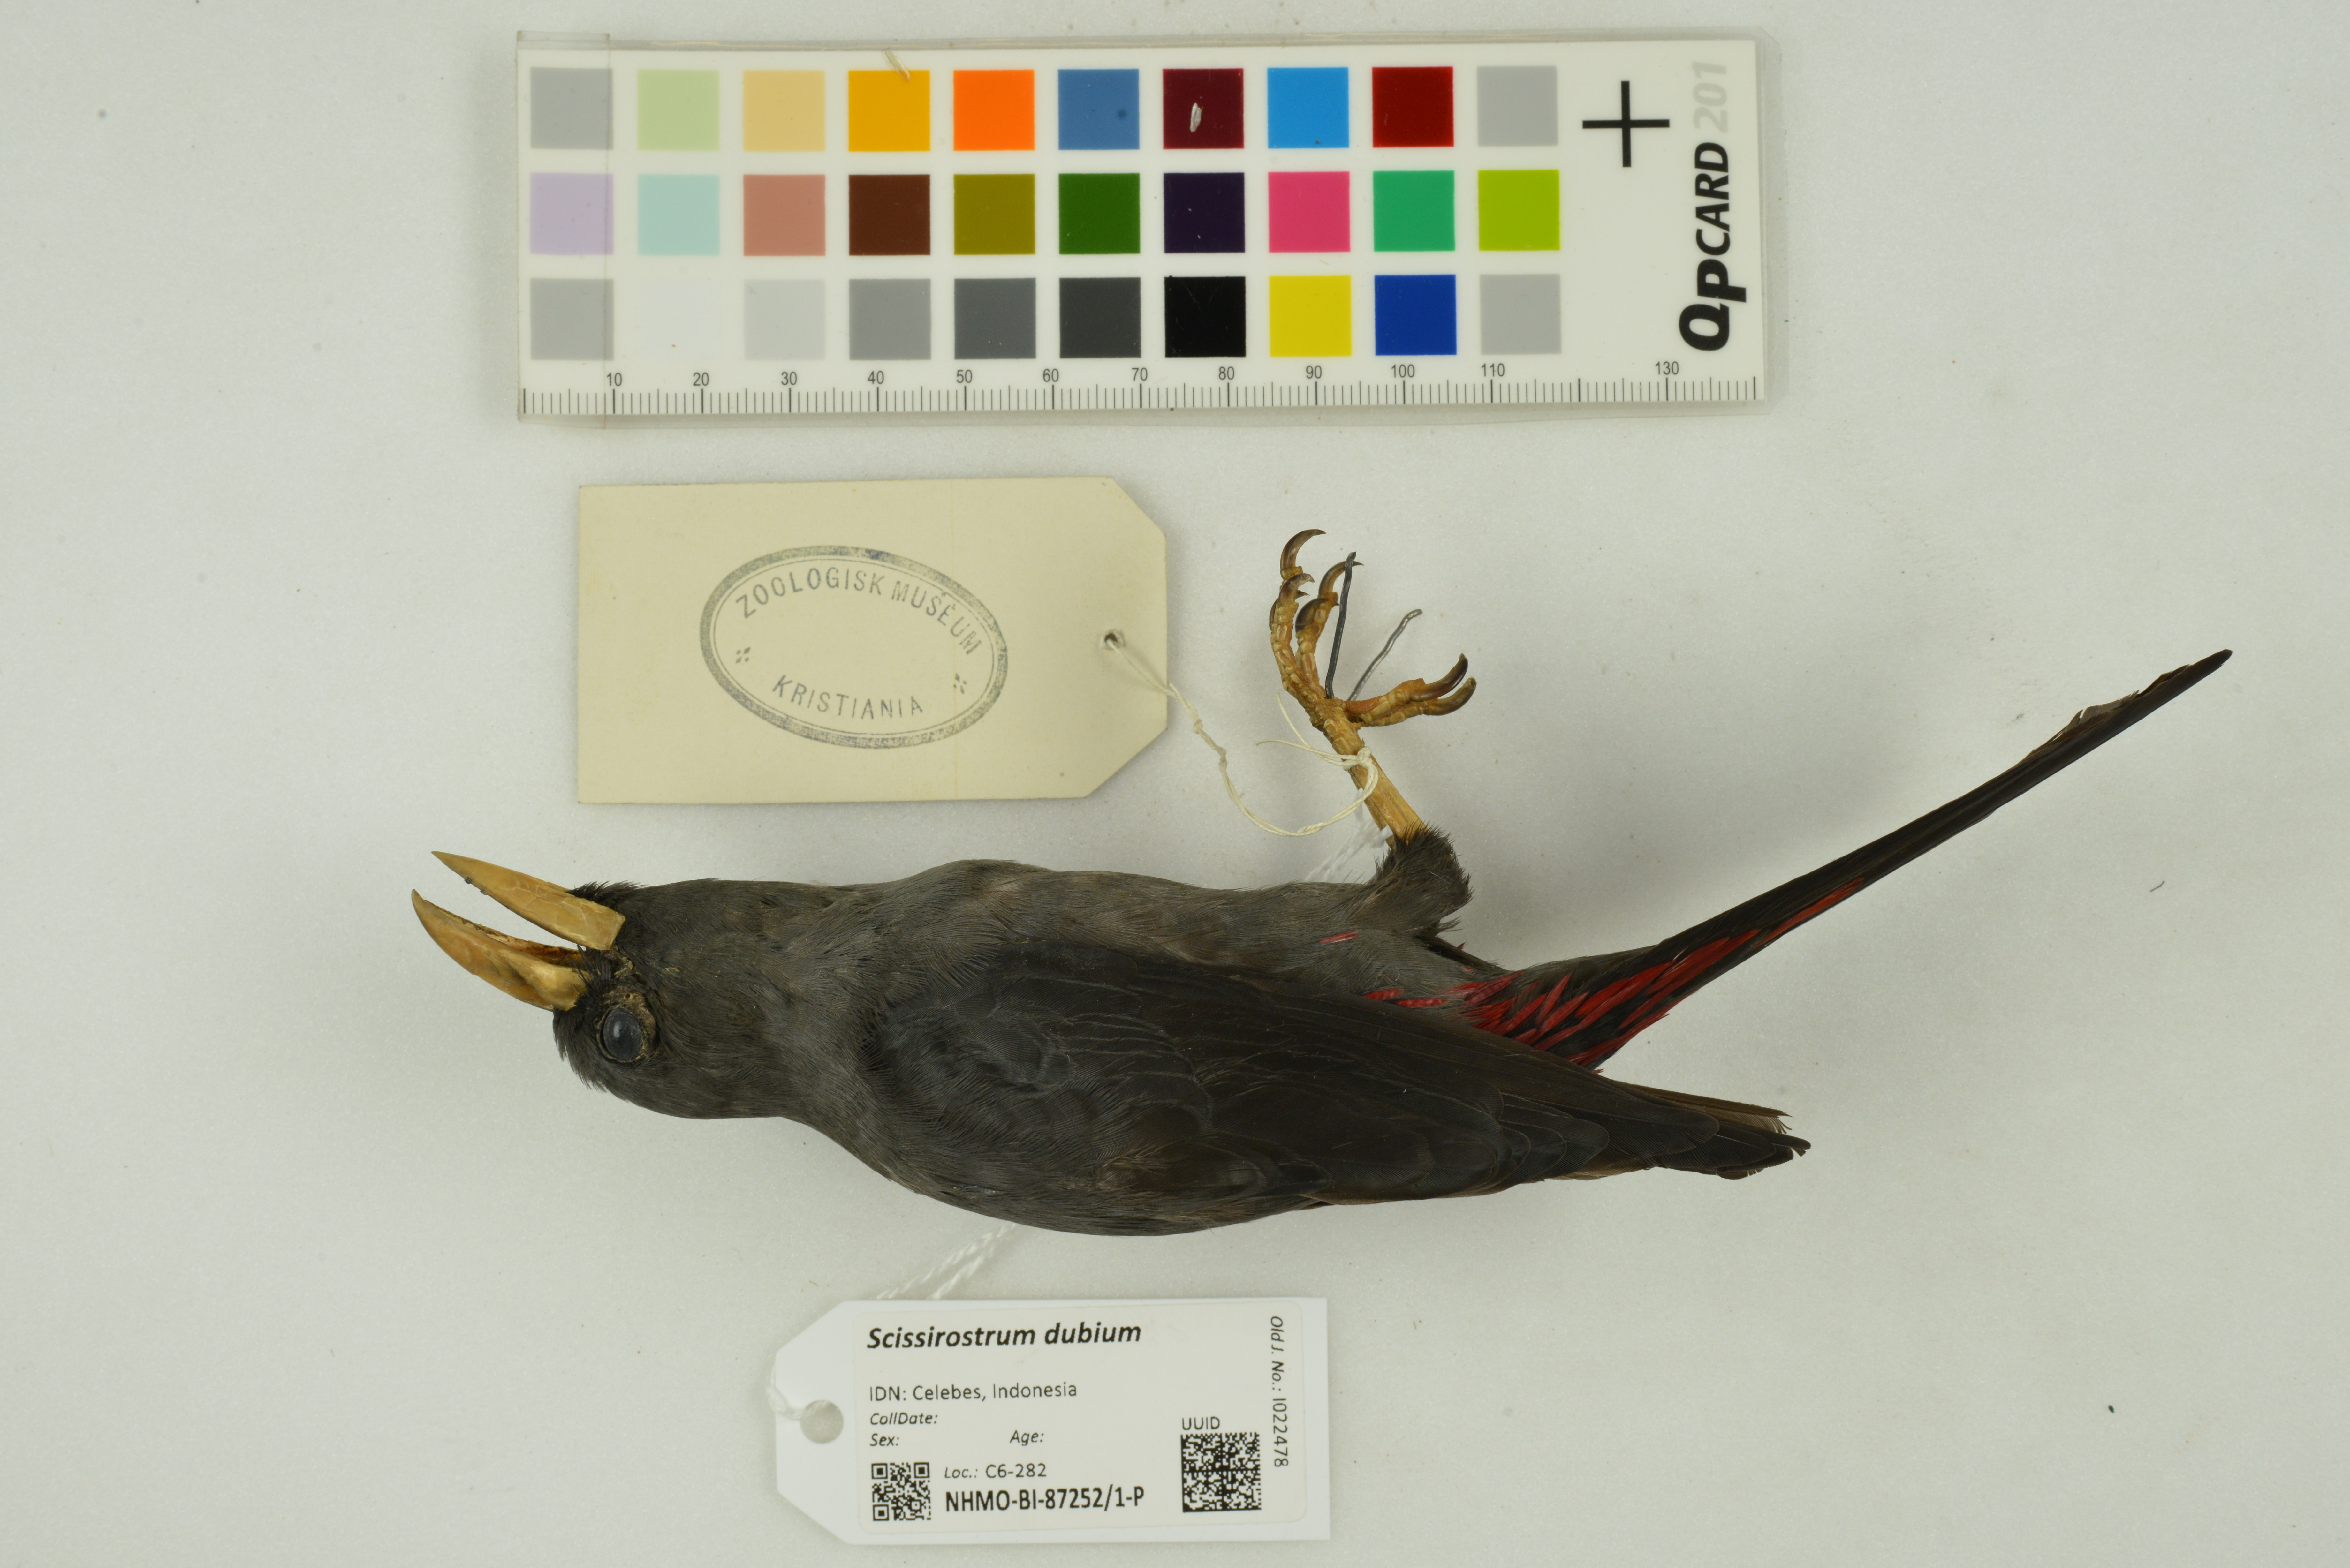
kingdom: Animalia
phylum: Chordata
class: Aves
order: Passeriformes
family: Sturnidae
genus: Scissirostrum
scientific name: Scissirostrum dubium
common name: Grosbeak starling
